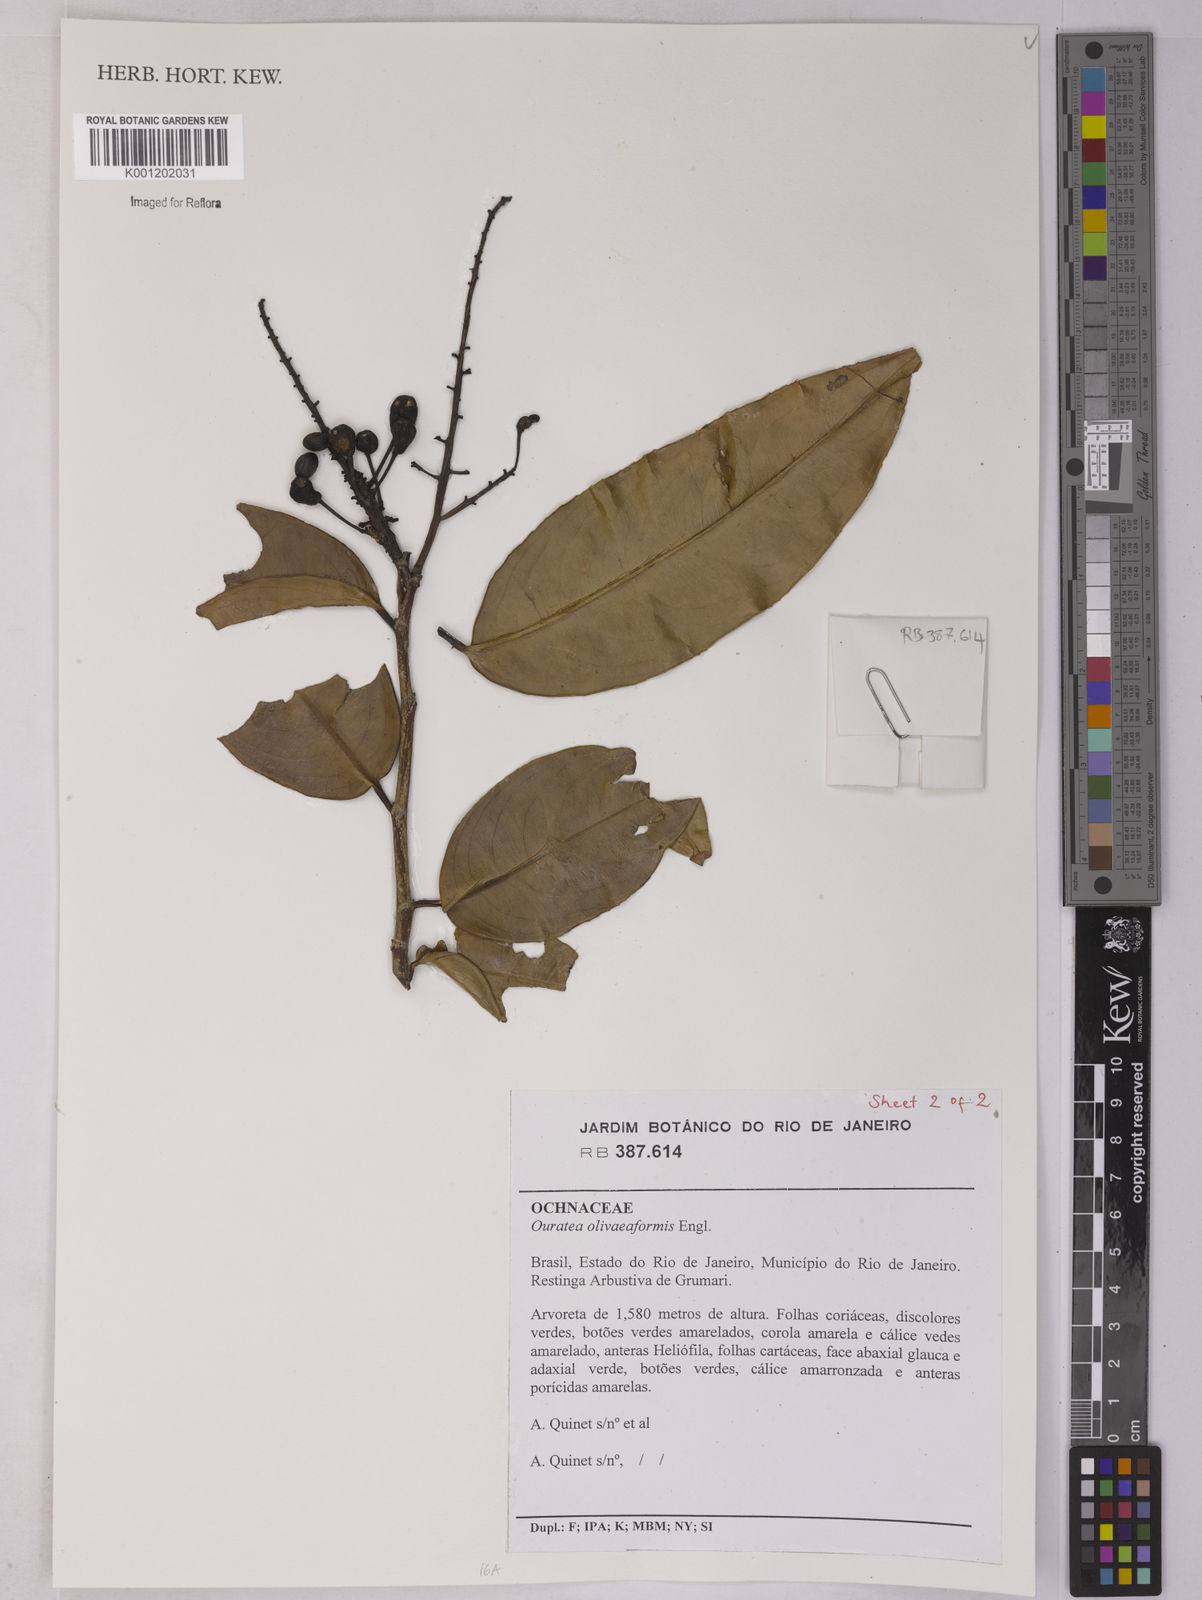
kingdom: Plantae
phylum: Tracheophyta
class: Magnoliopsida
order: Malpighiales
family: Ochnaceae
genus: Ouratea
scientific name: Ouratea oliviformis
